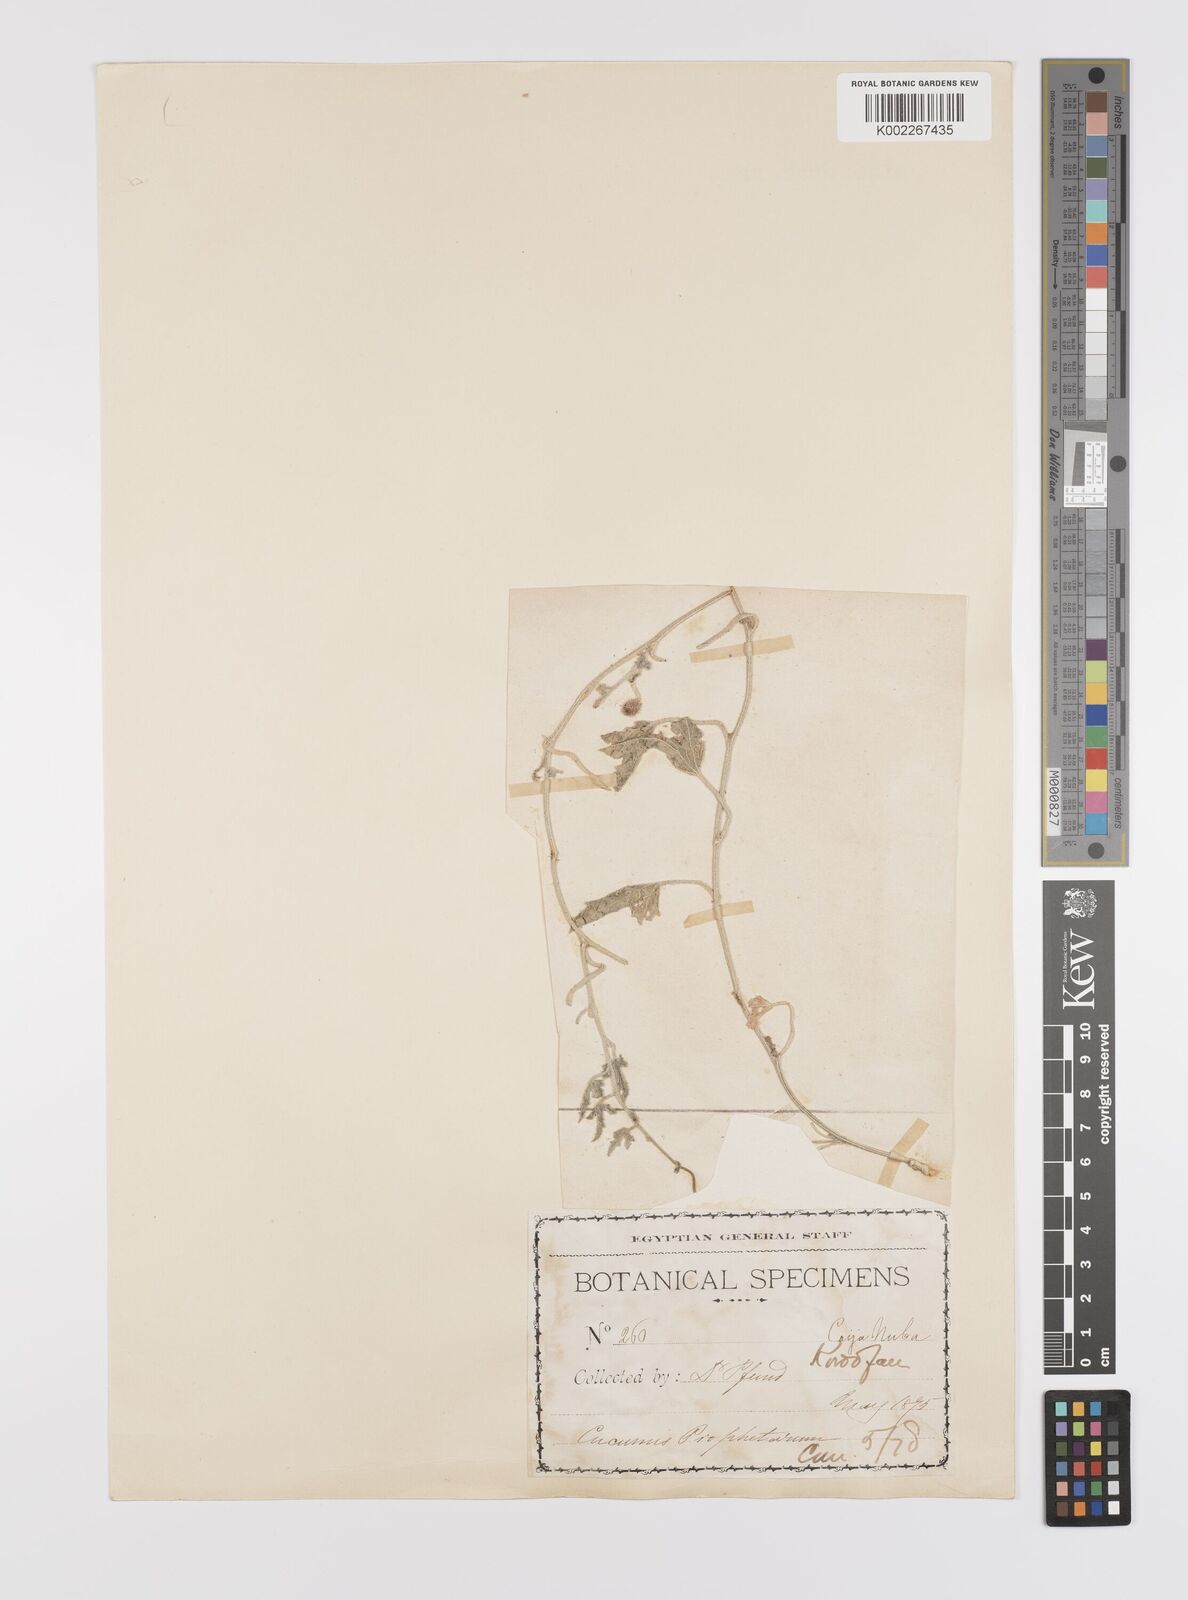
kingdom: Plantae
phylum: Tracheophyta
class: Magnoliopsida
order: Cucurbitales
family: Cucurbitaceae
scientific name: Cucurbitaceae
